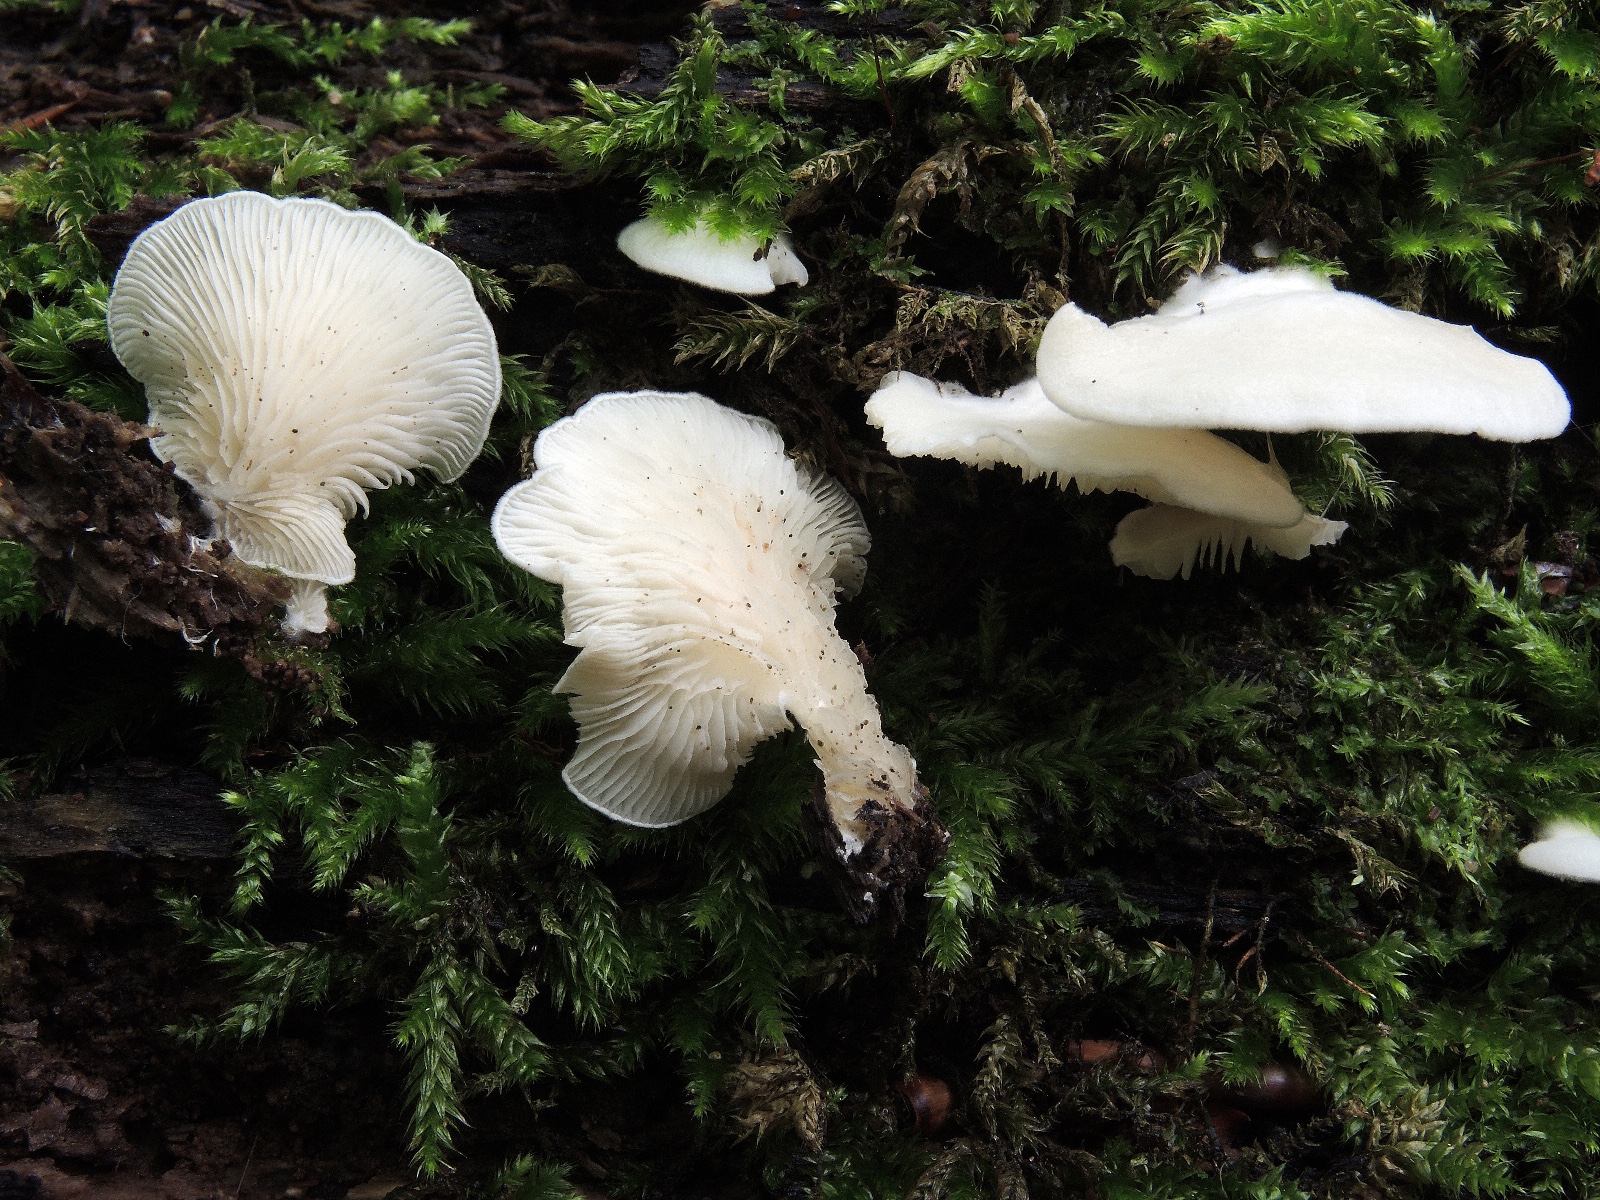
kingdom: Fungi
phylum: Basidiomycota
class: Agaricomycetes
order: Agaricales
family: Entolomataceae
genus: Clitopilus
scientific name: Clitopilus hobsonii
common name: Miller's oysterling
